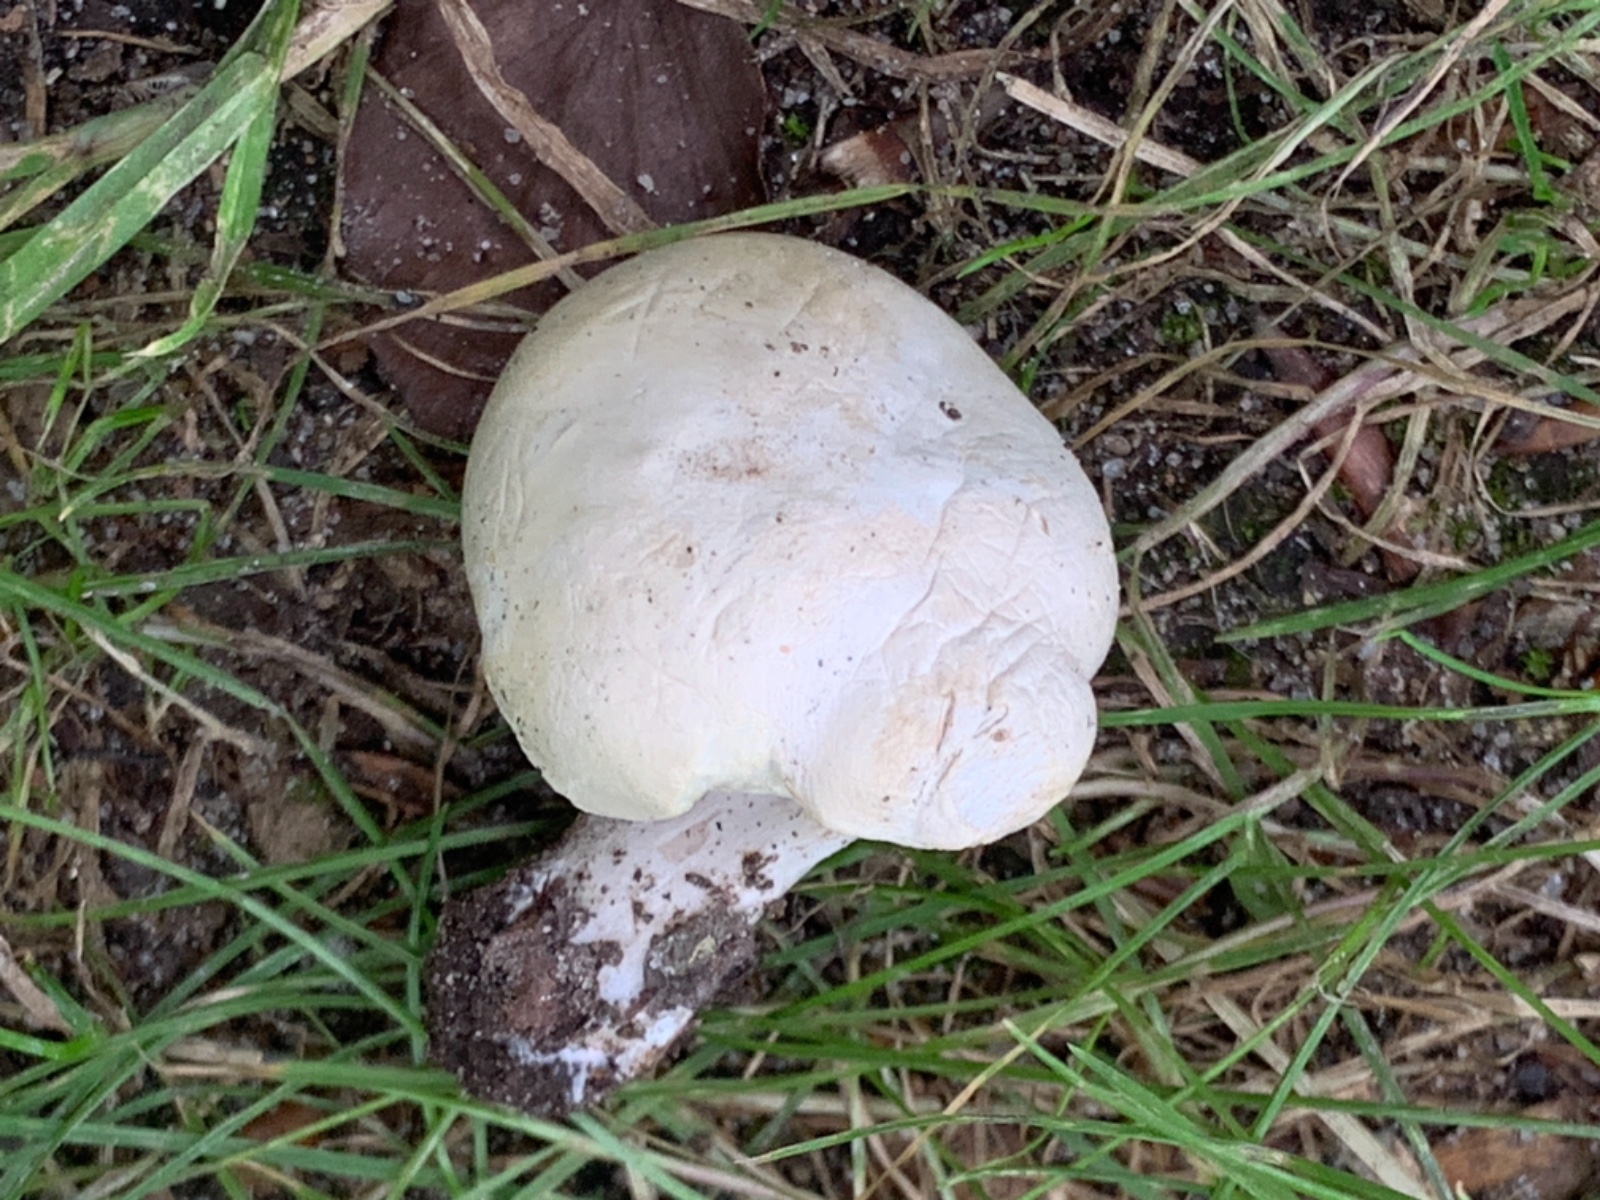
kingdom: Fungi
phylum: Basidiomycota
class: Agaricomycetes
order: Agaricales
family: Entolomataceae
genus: Clitopilus
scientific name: Clitopilus prunulus
